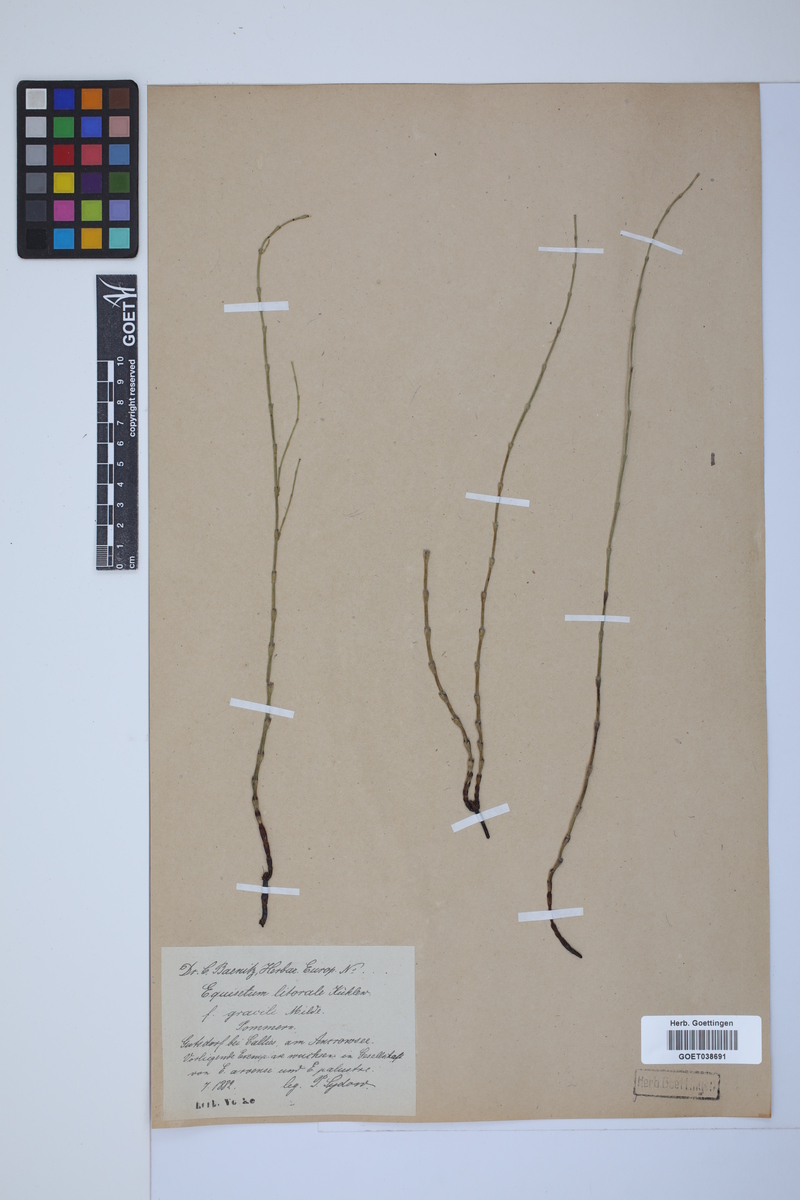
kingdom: Plantae
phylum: Tracheophyta
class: Polypodiopsida
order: Equisetales
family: Equisetaceae
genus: Equisetum
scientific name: Equisetum litorale
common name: Littoral horsetail
